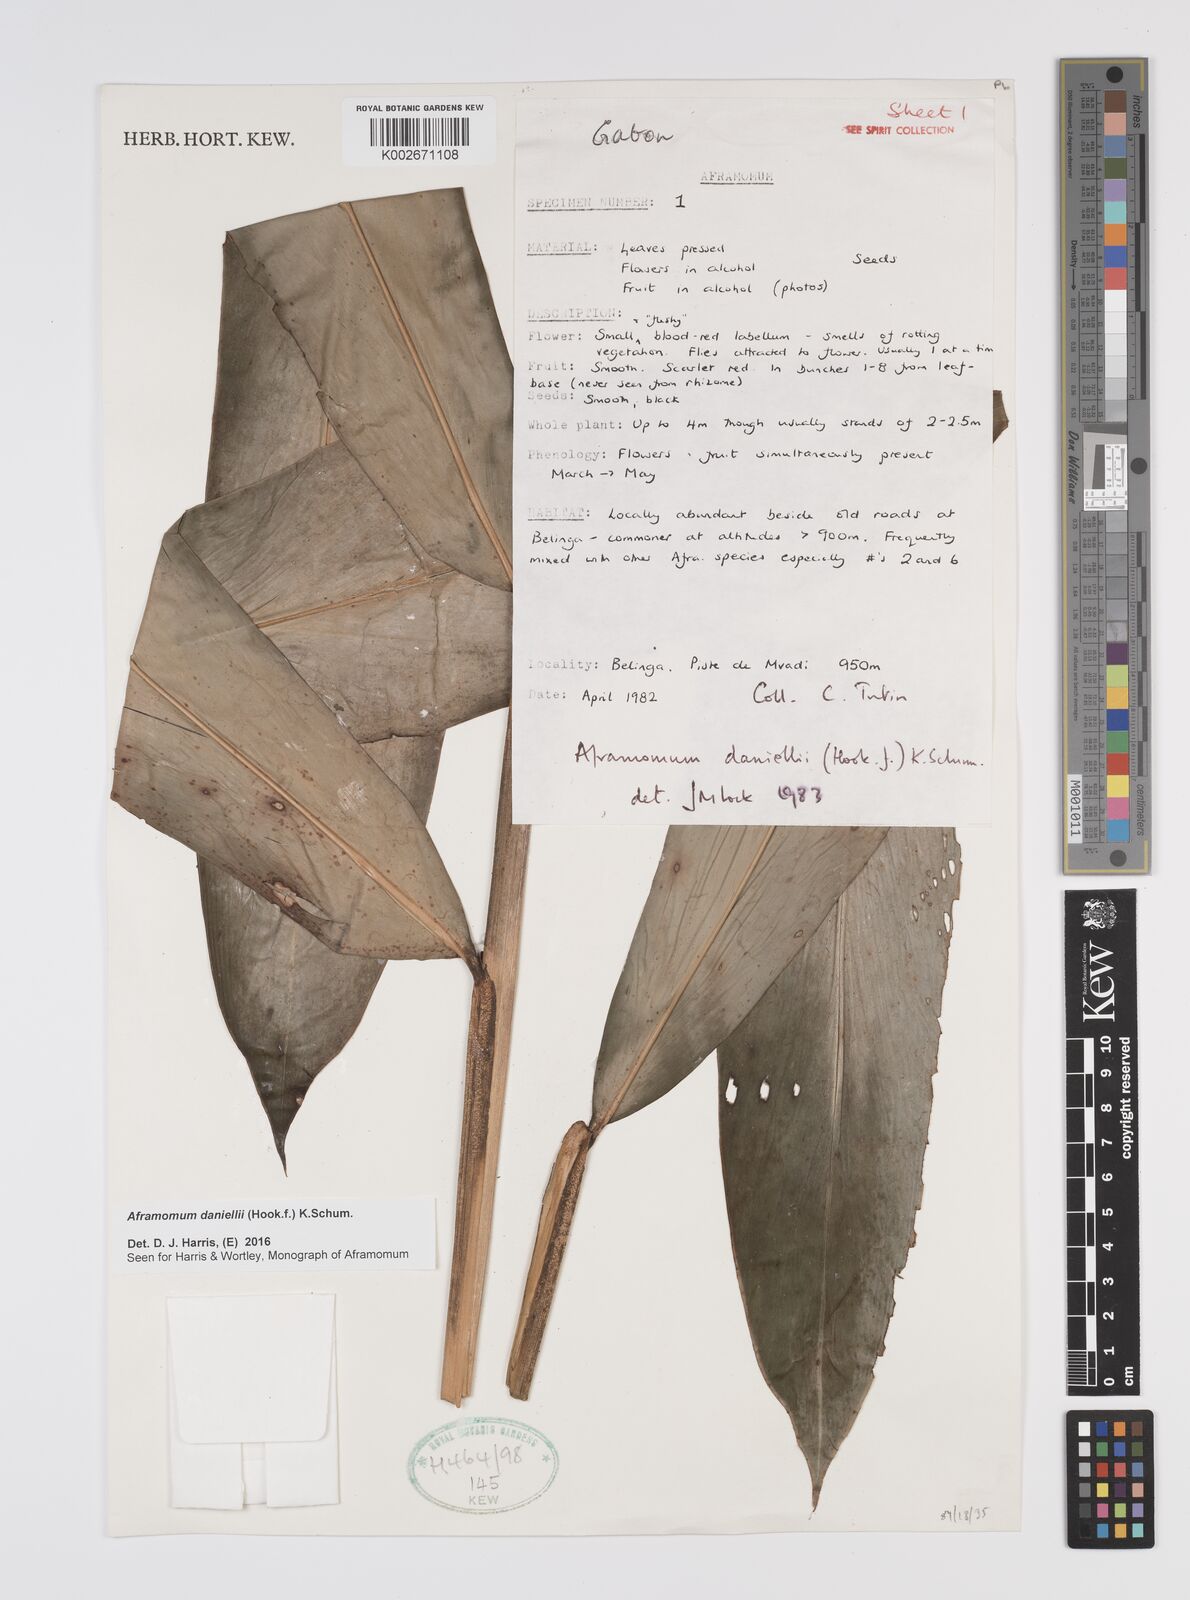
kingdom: Plantae
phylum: Tracheophyta
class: Liliopsida
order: Zingiberales
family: Zingiberaceae
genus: Aframomum
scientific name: Aframomum daniellii
